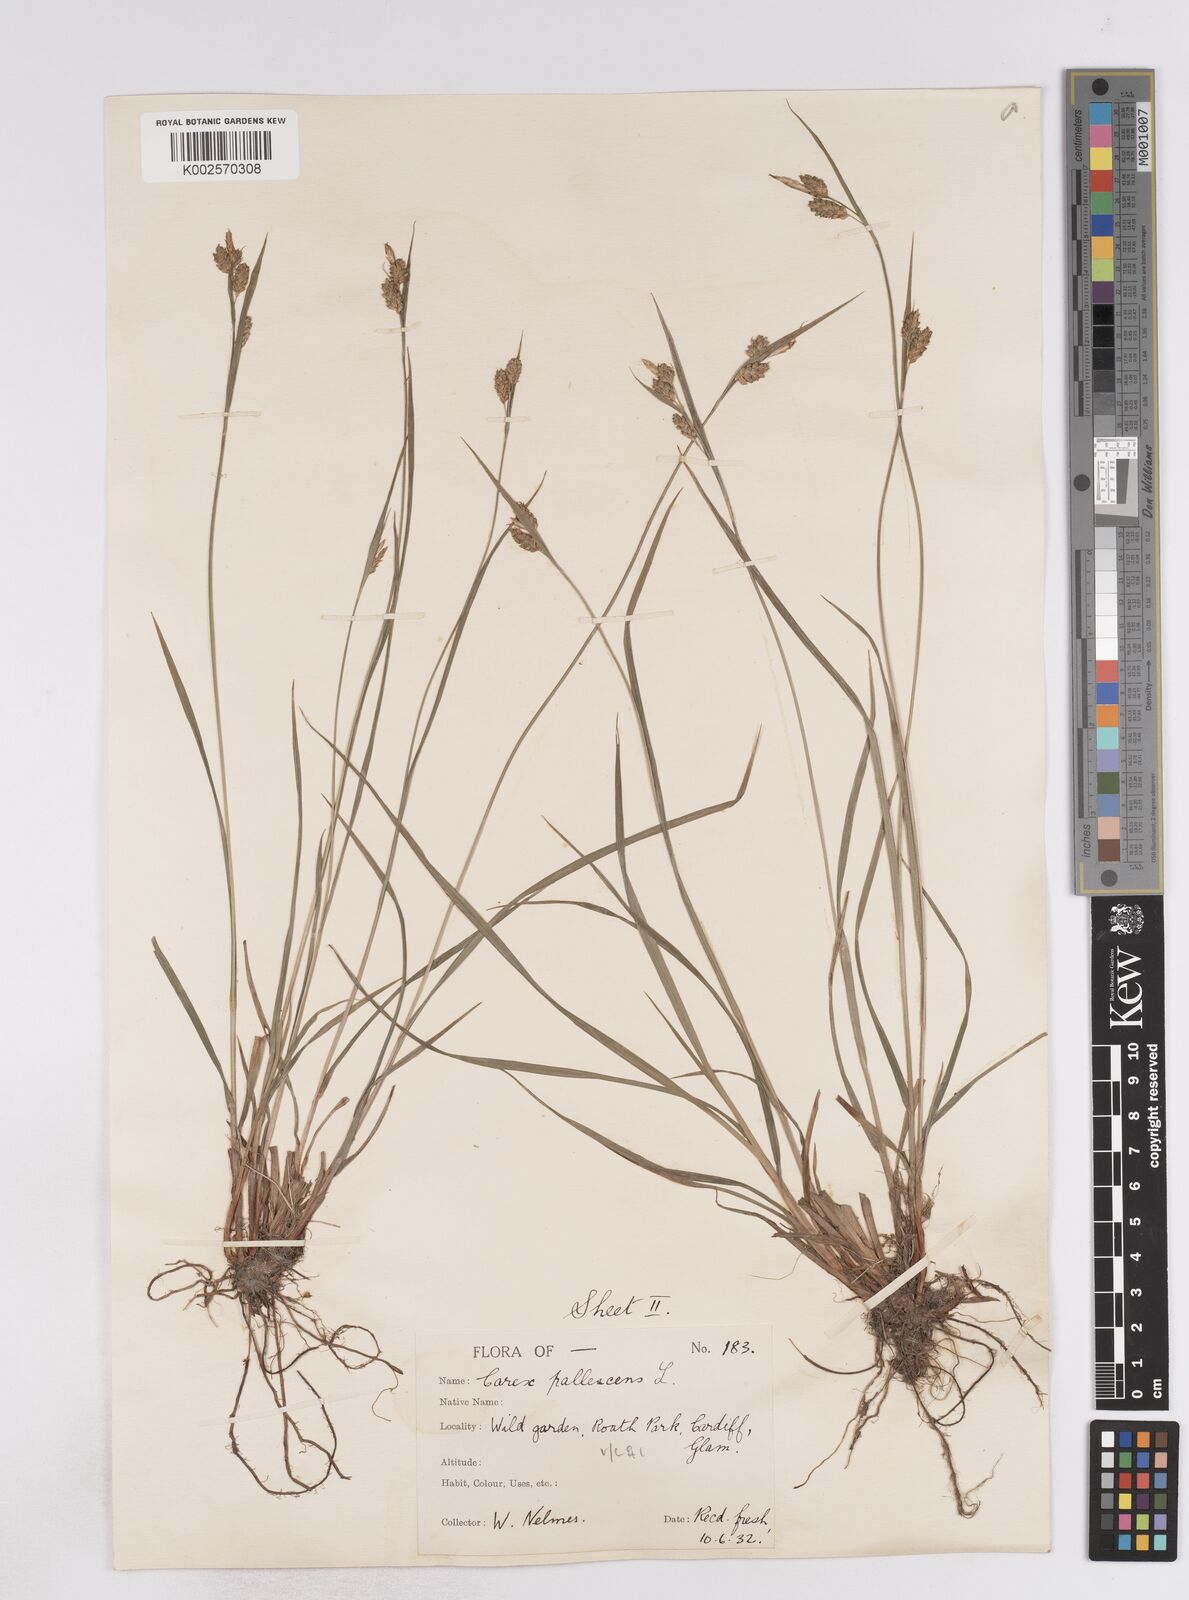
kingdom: Plantae
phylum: Tracheophyta
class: Liliopsida
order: Poales
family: Cyperaceae
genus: Carex
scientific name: Carex pallescens
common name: Pale sedge
